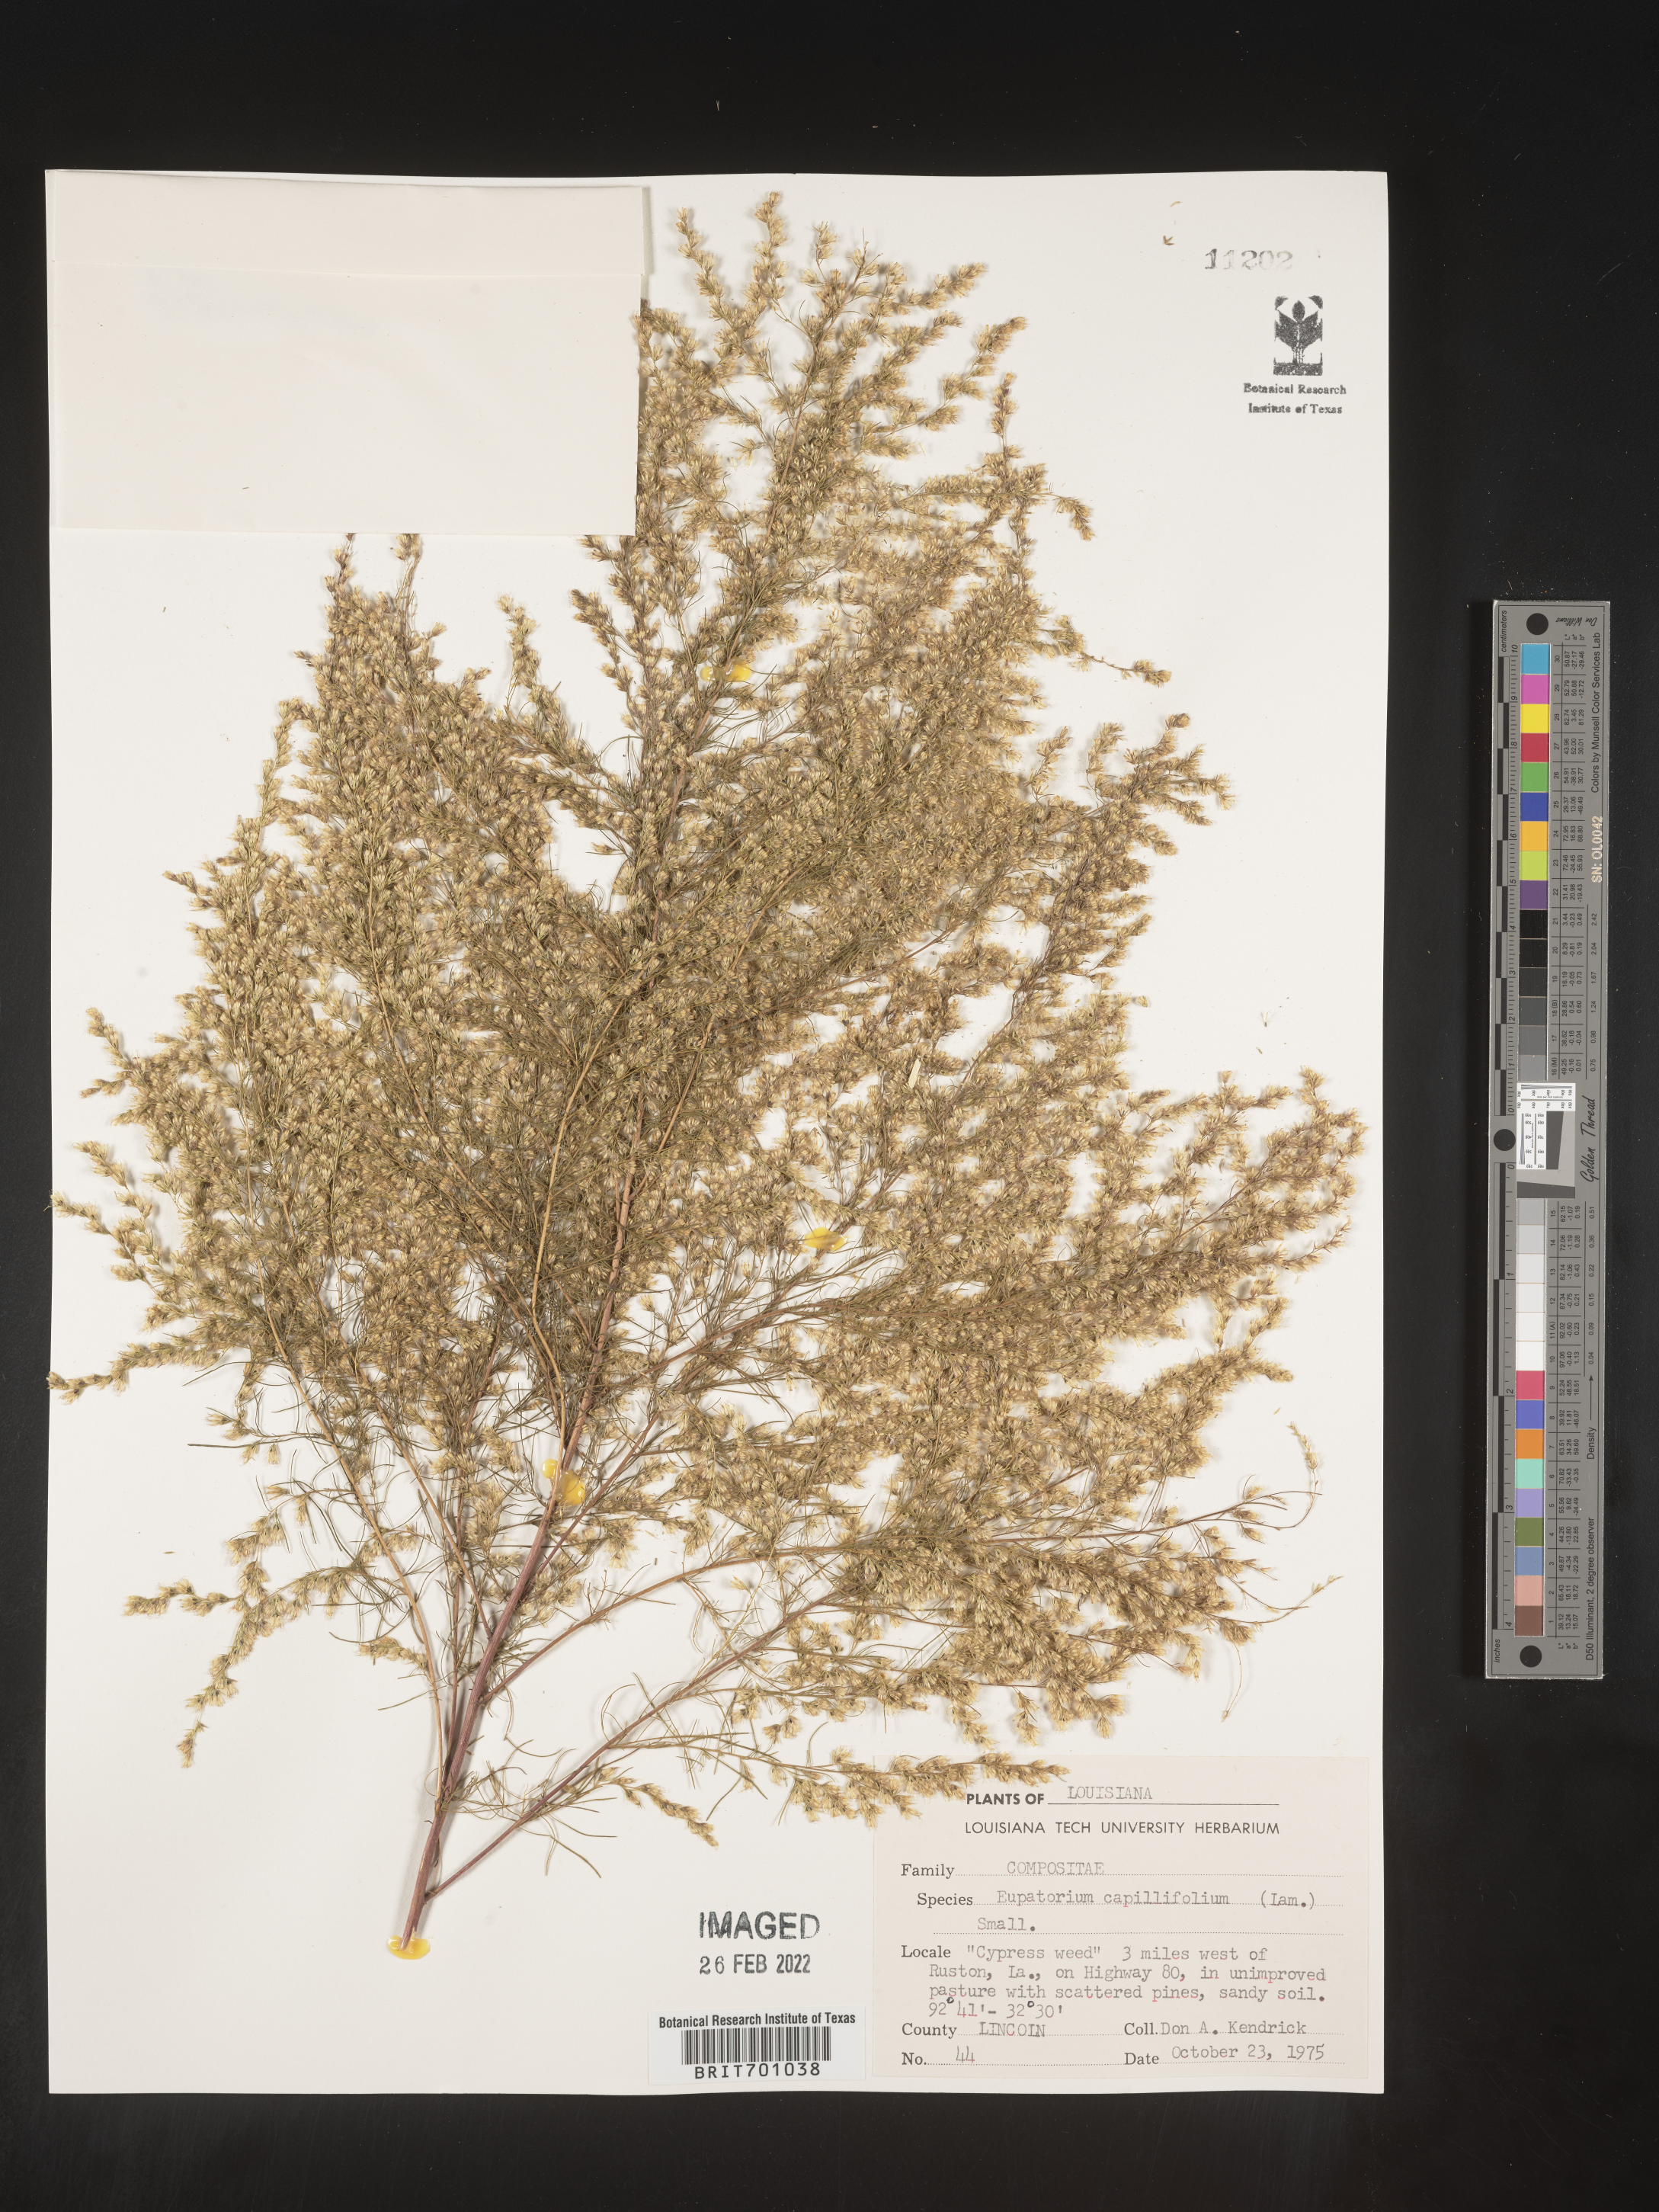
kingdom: Plantae
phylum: Tracheophyta
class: Magnoliopsida
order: Asterales
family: Asteraceae
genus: Eupatorium
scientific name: Eupatorium capillifolium
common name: Dog-fennel
